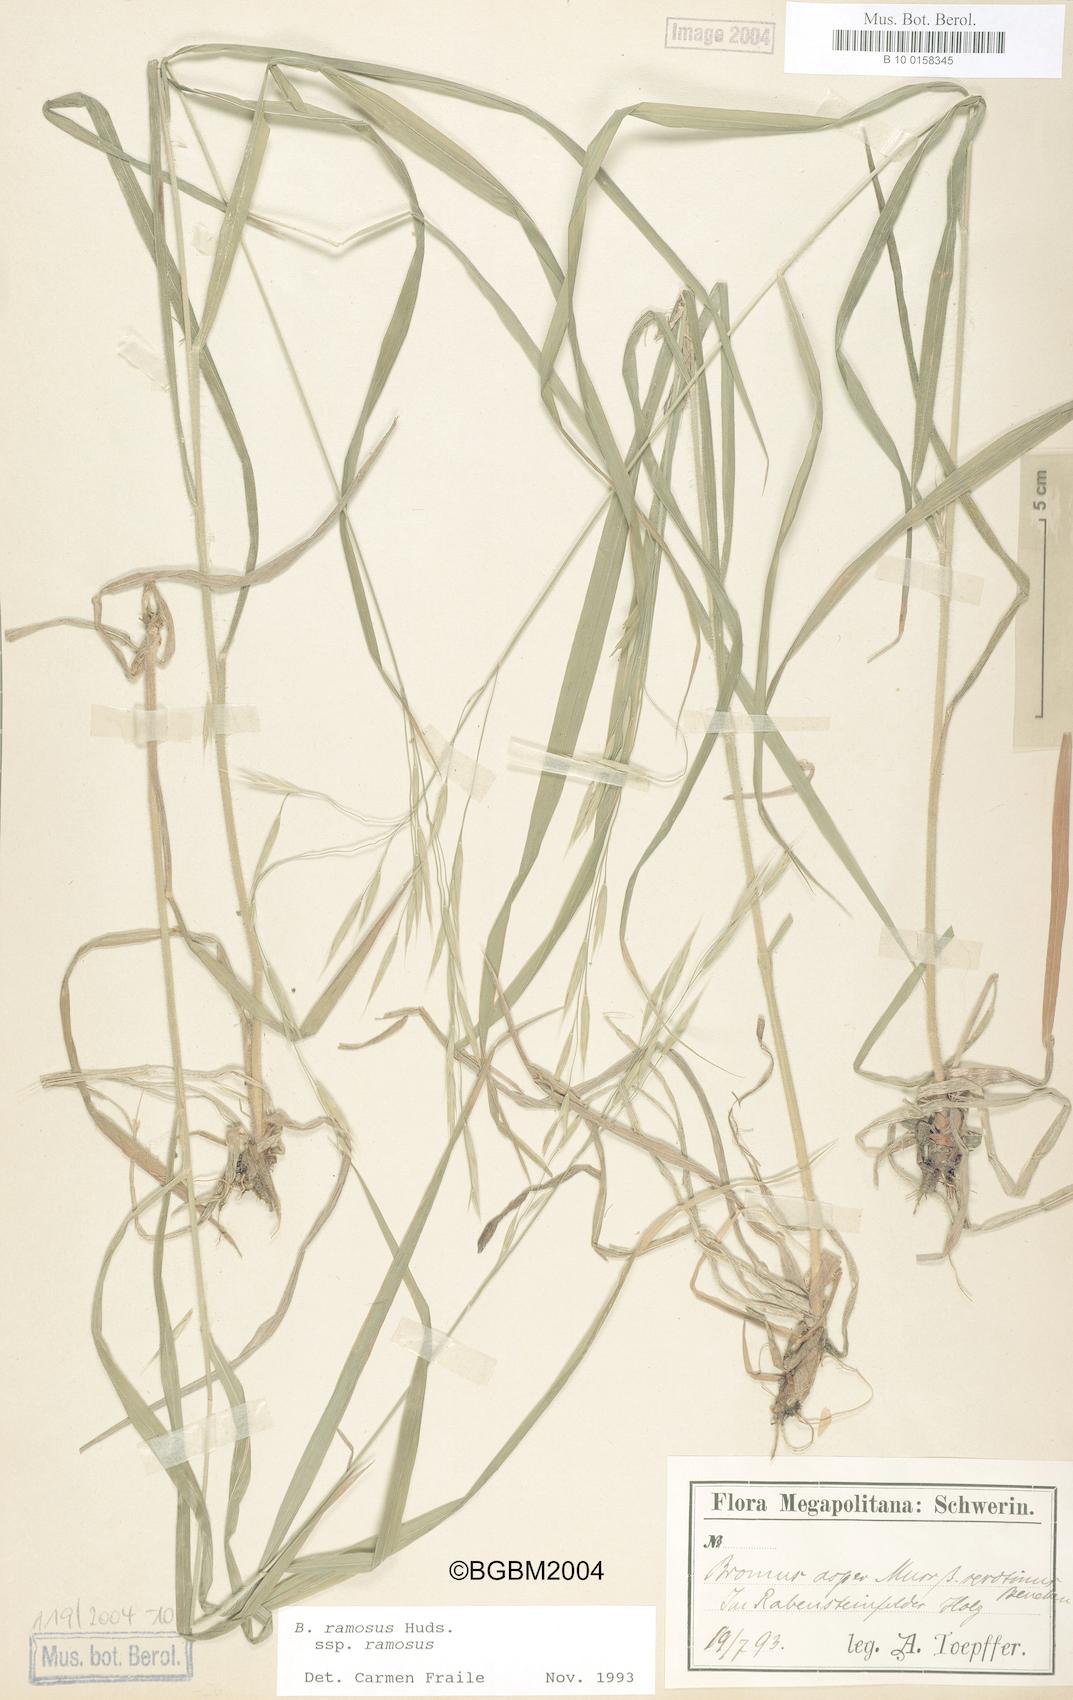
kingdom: Plantae
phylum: Tracheophyta
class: Liliopsida
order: Poales
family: Poaceae
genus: Bromus
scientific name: Bromus ramosus
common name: Hairy brome
